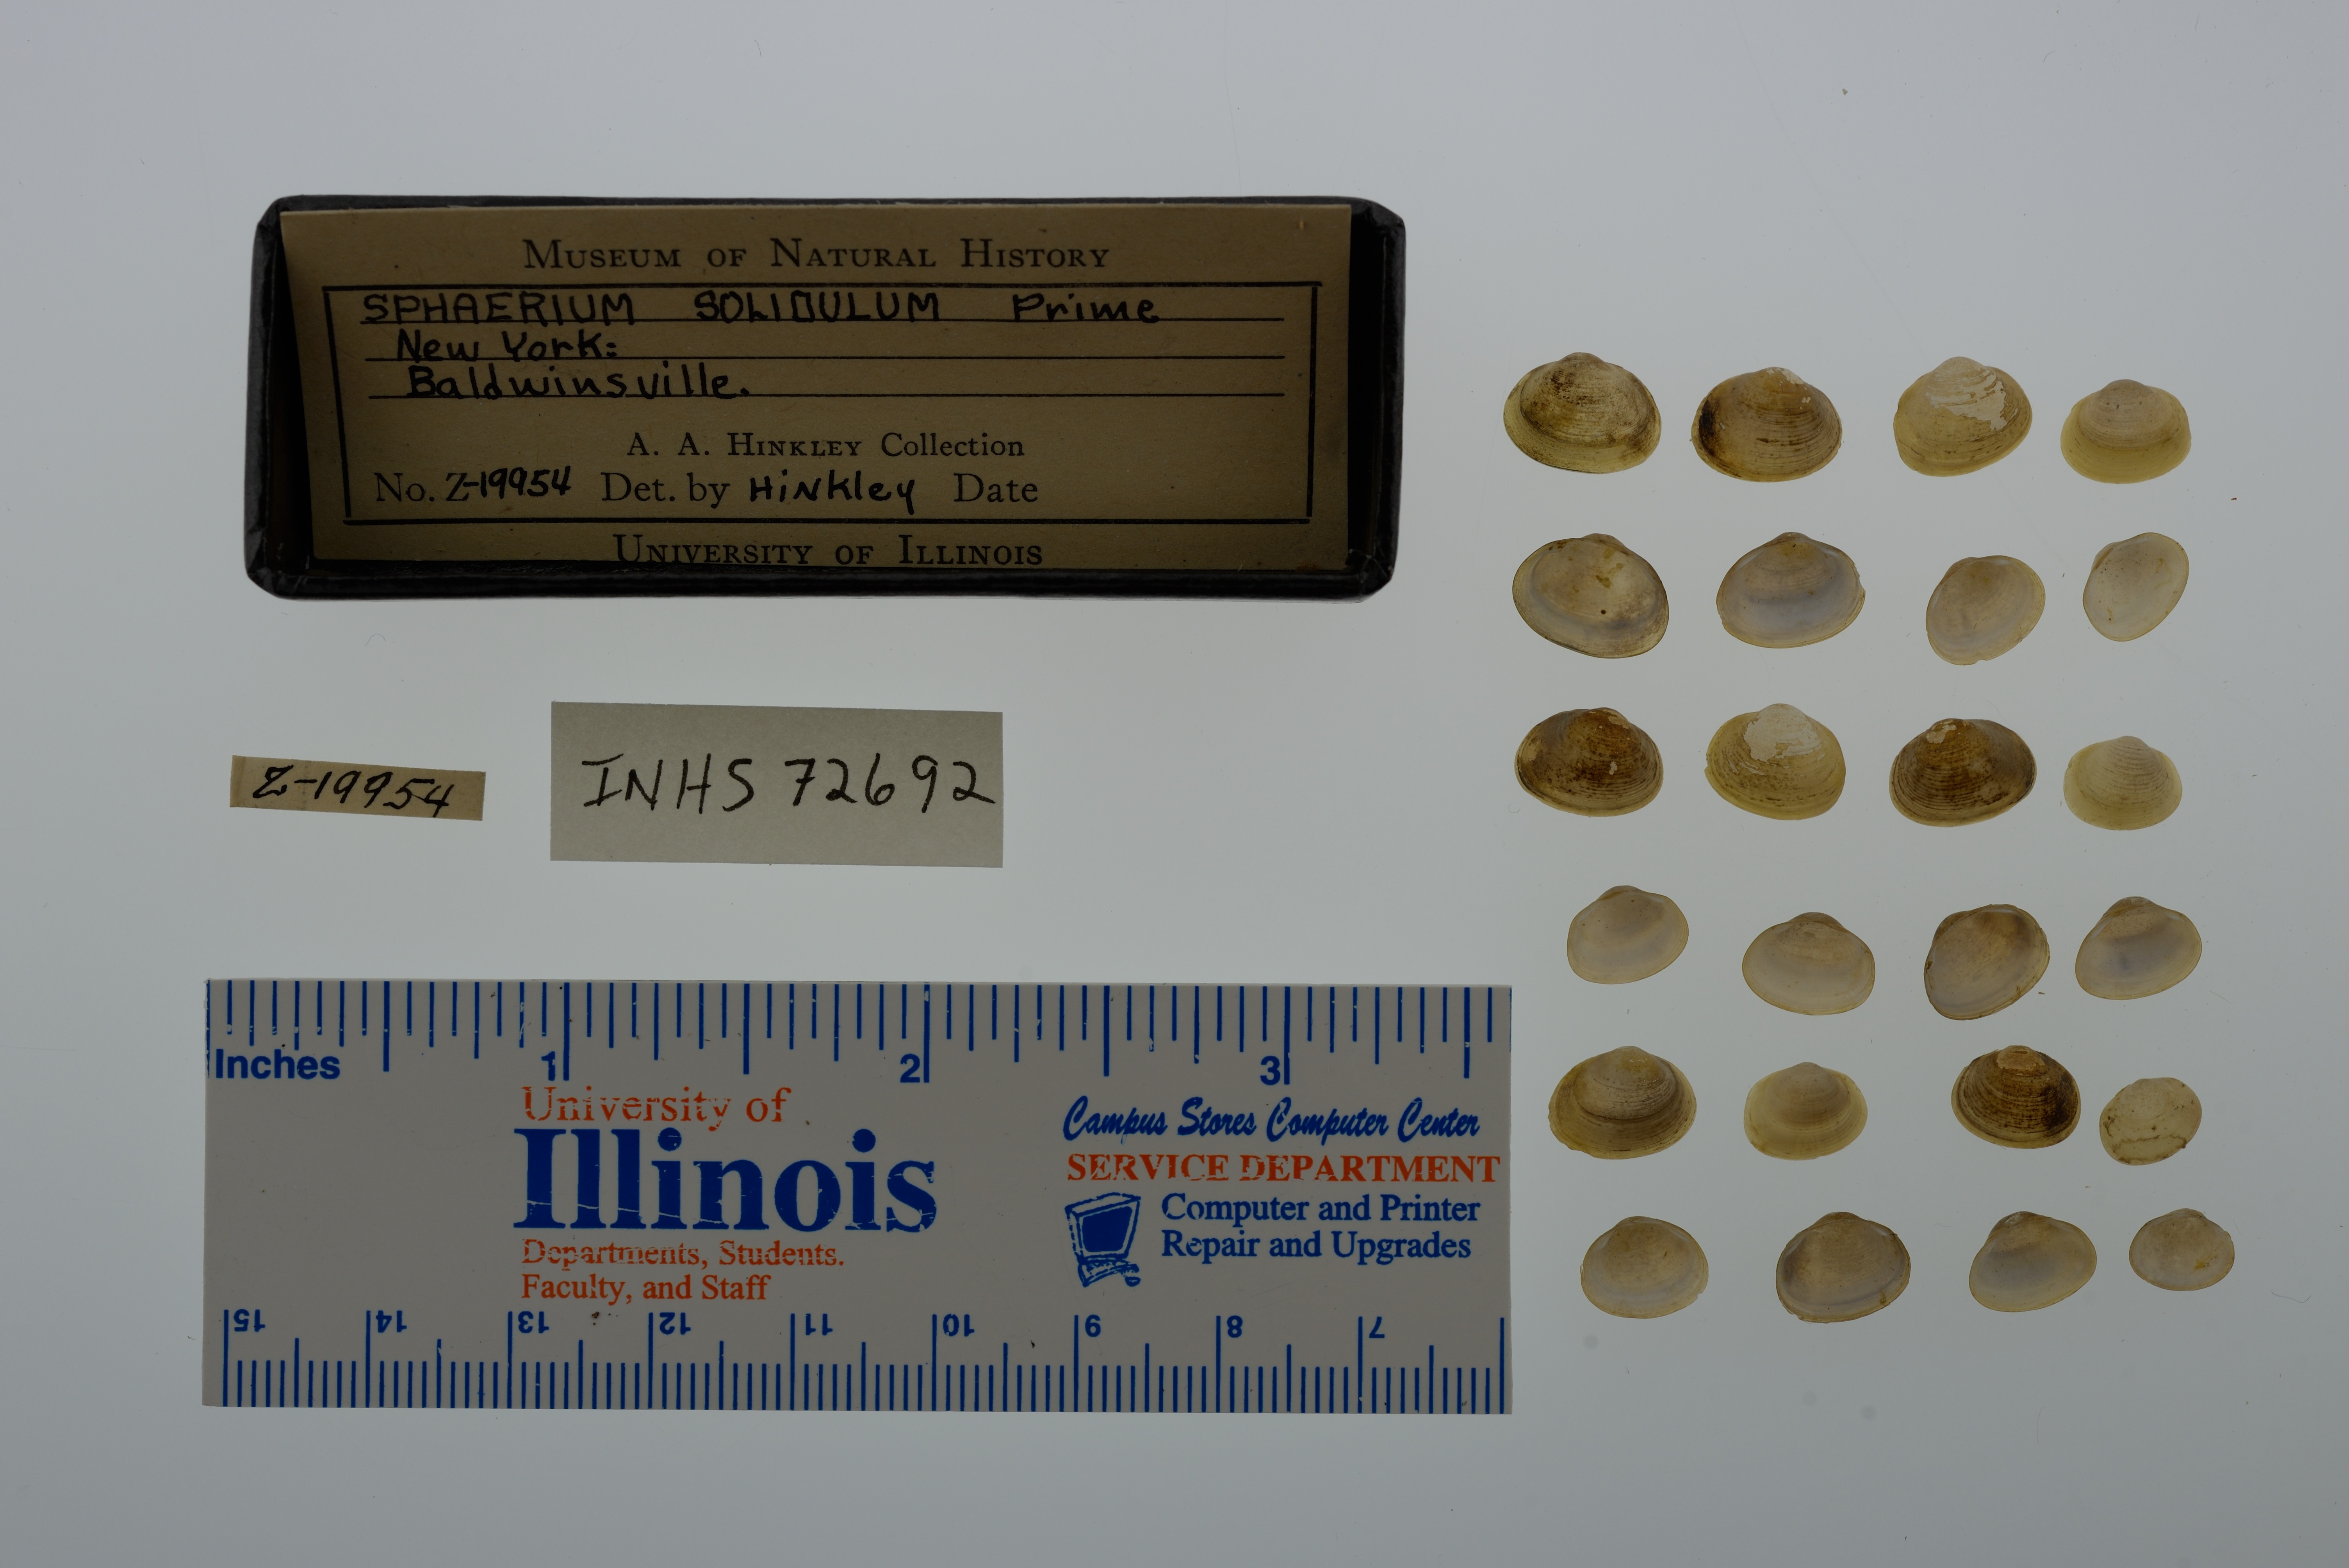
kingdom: Animalia
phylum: Mollusca
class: Bivalvia
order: Sphaeriida
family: Sphaeriidae
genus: Sphaerium
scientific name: Sphaerium striatinum
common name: Striated fingernailclam
